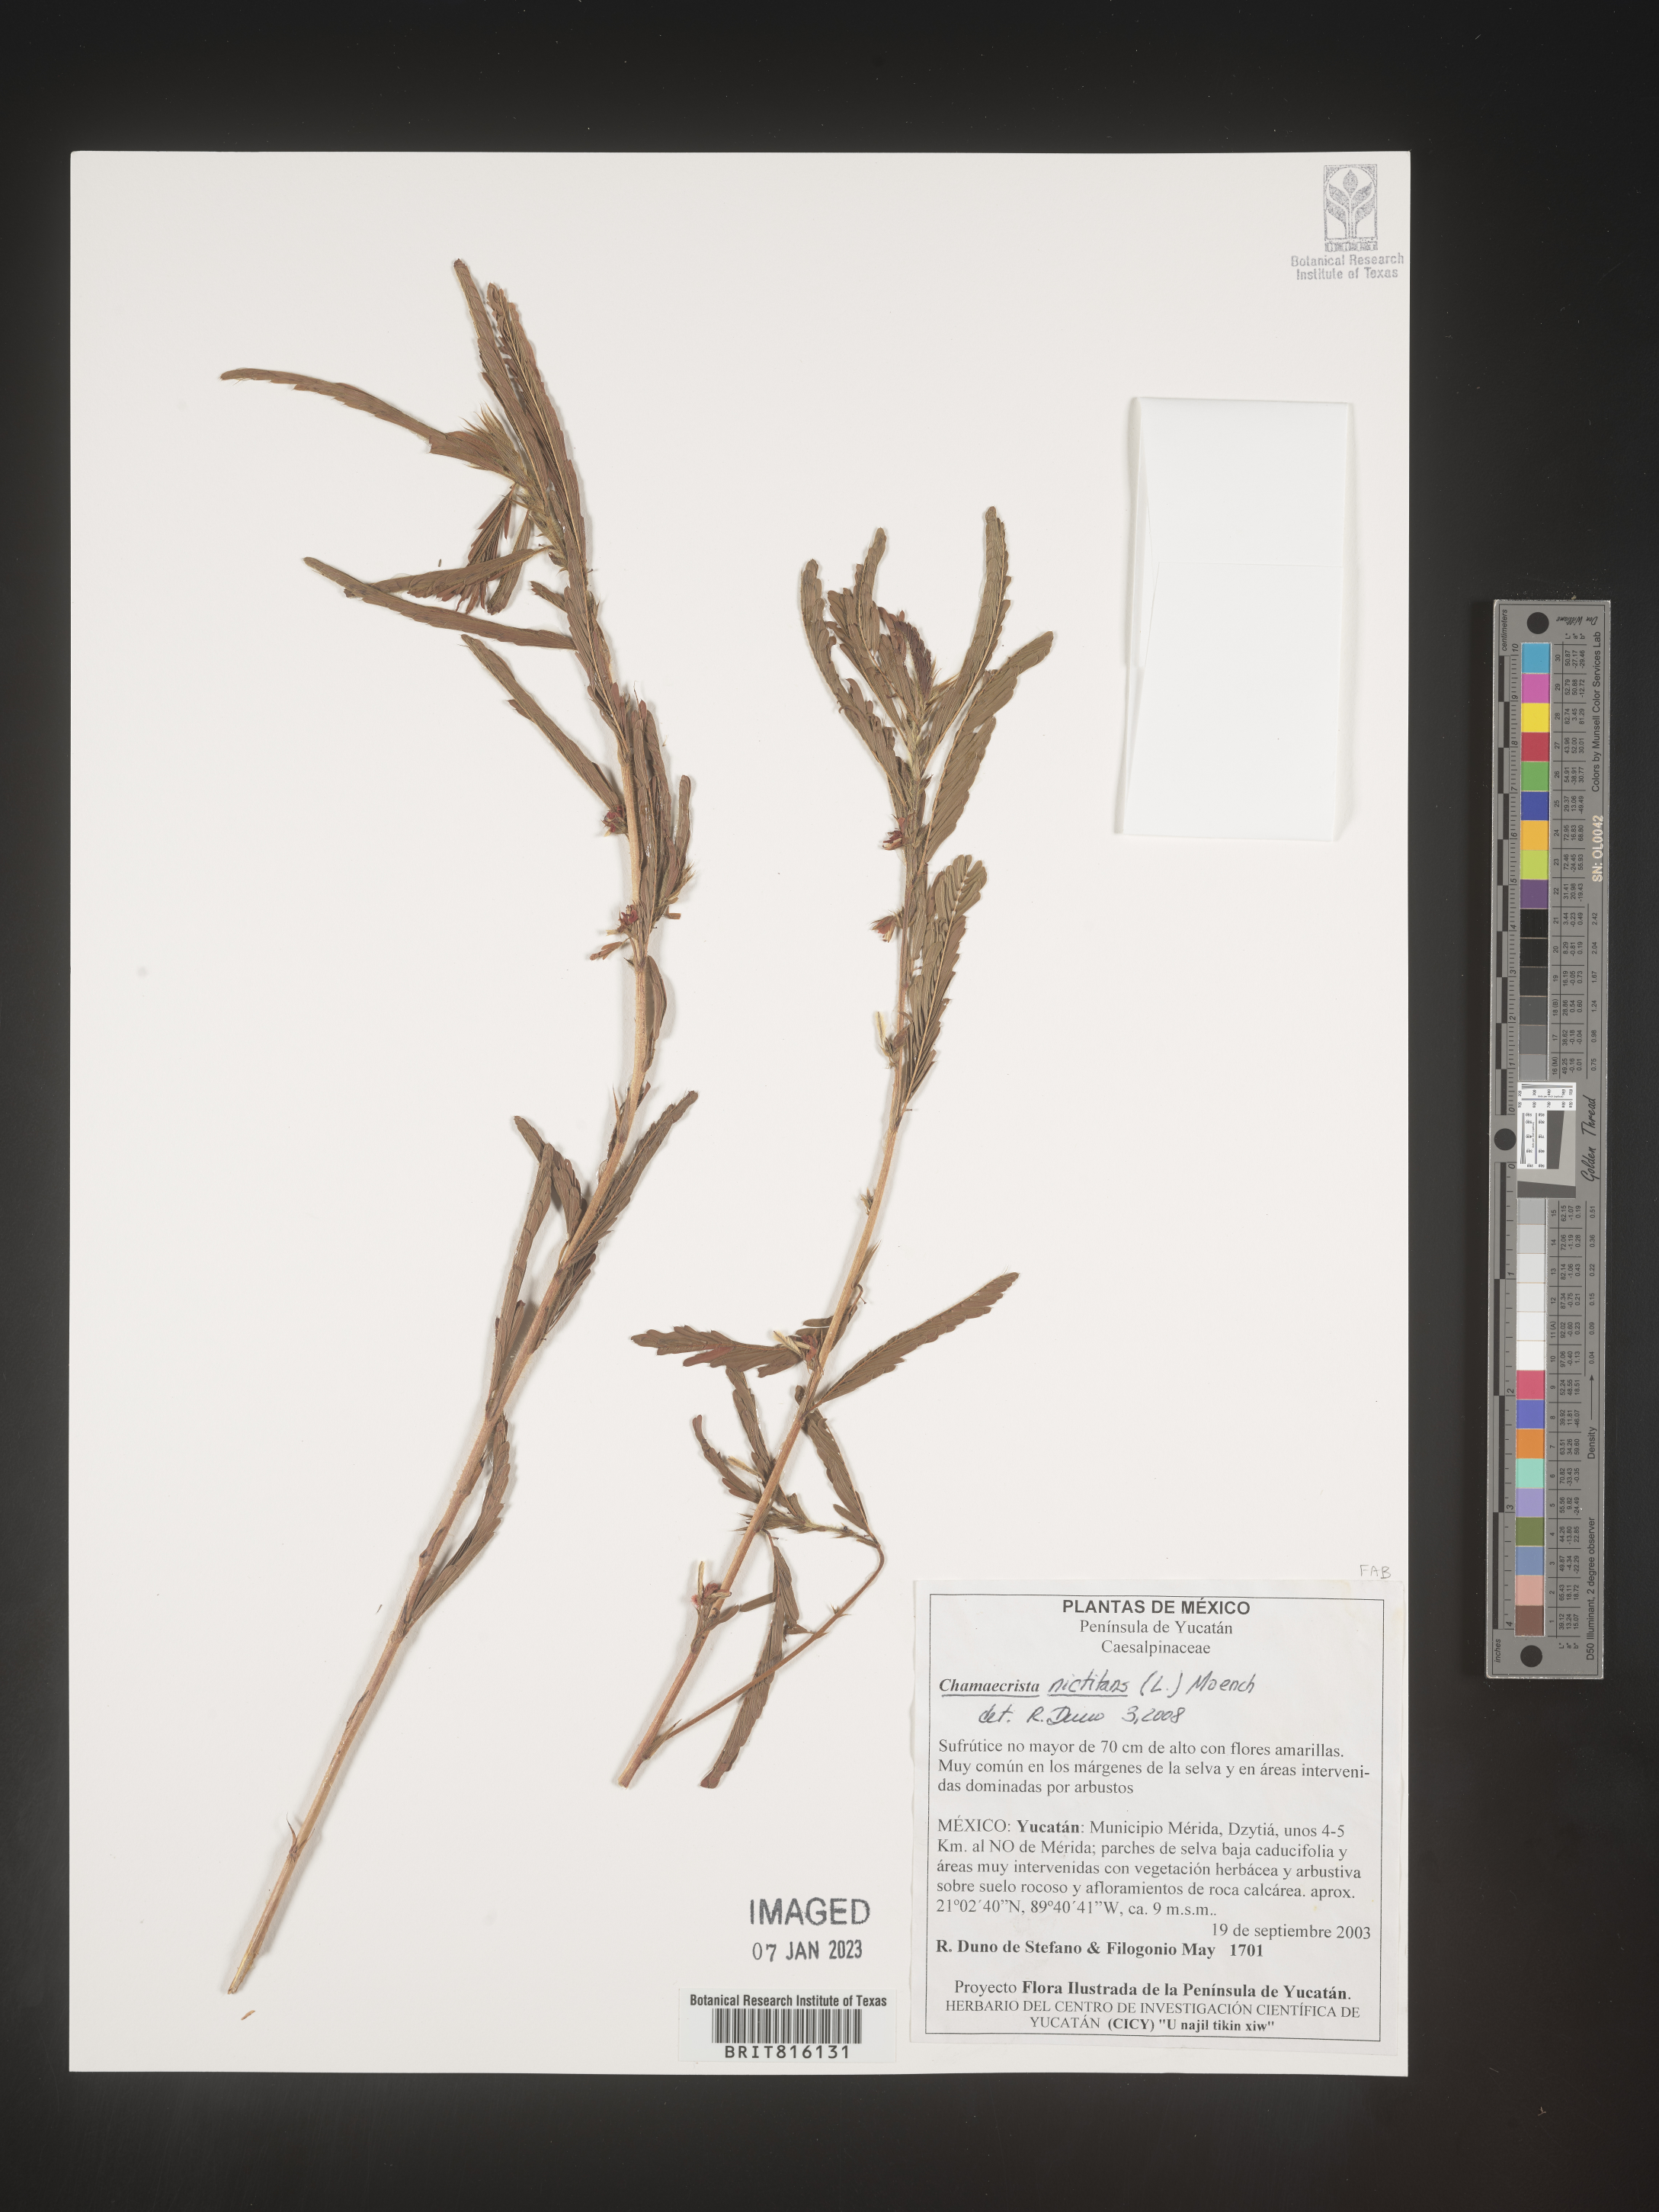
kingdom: Plantae
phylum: Tracheophyta
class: Magnoliopsida
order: Fabales
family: Fabaceae
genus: Chamaecrista
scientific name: Chamaecrista
